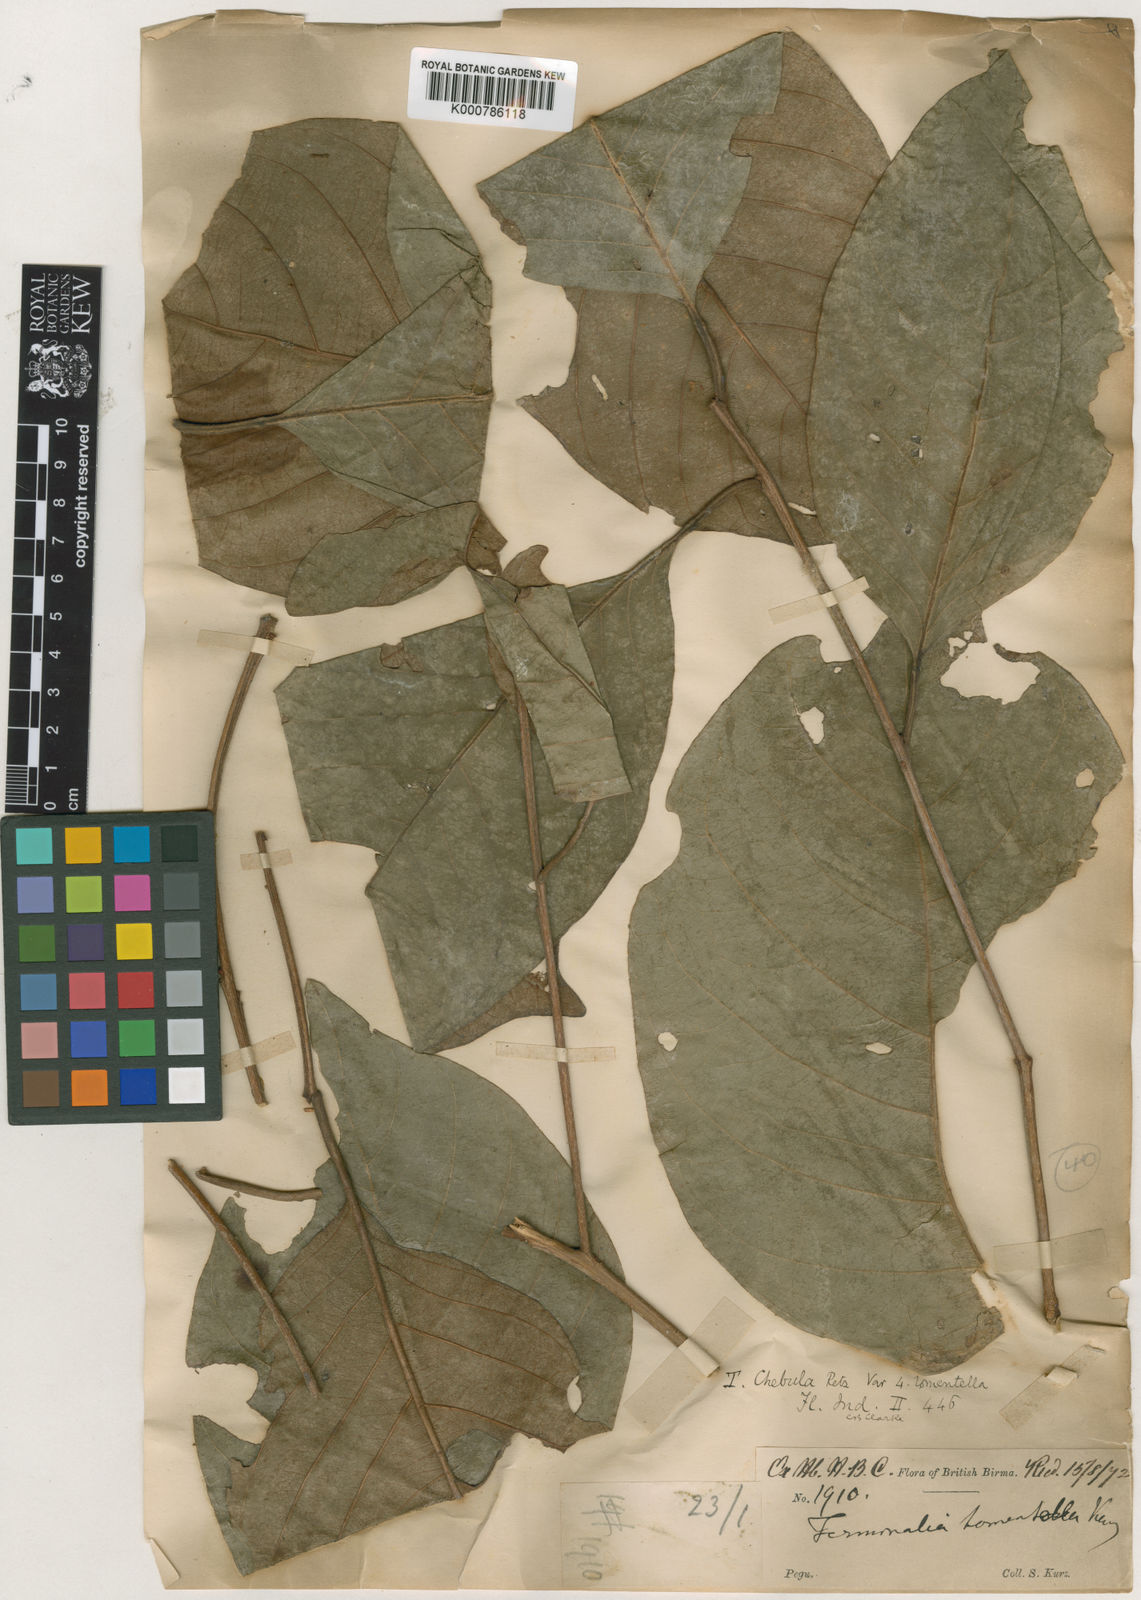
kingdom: Plantae
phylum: Tracheophyta
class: Magnoliopsida
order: Myrtales
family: Combretaceae
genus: Terminalia
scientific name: Terminalia chebula
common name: Myrobalan
